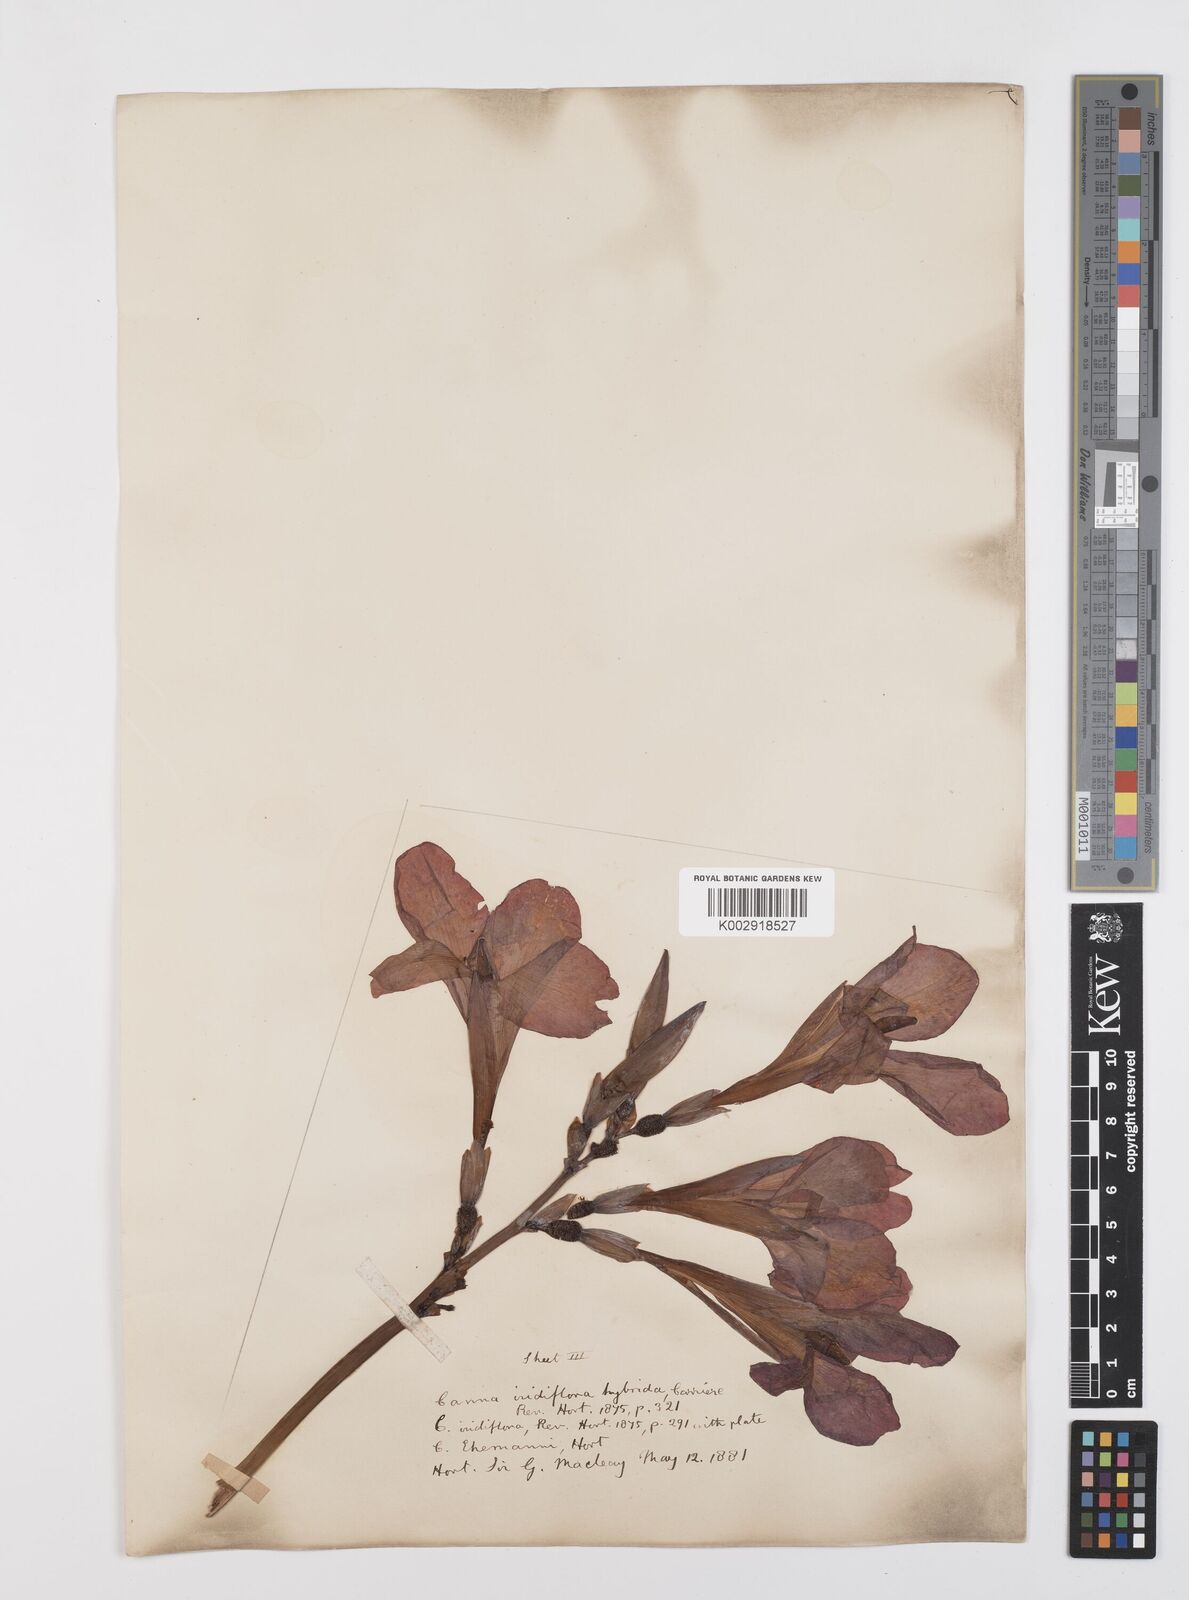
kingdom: Plantae
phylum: Tracheophyta
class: Liliopsida
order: Zingiberales
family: Cannaceae
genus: Canna
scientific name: Canna iridiflora
